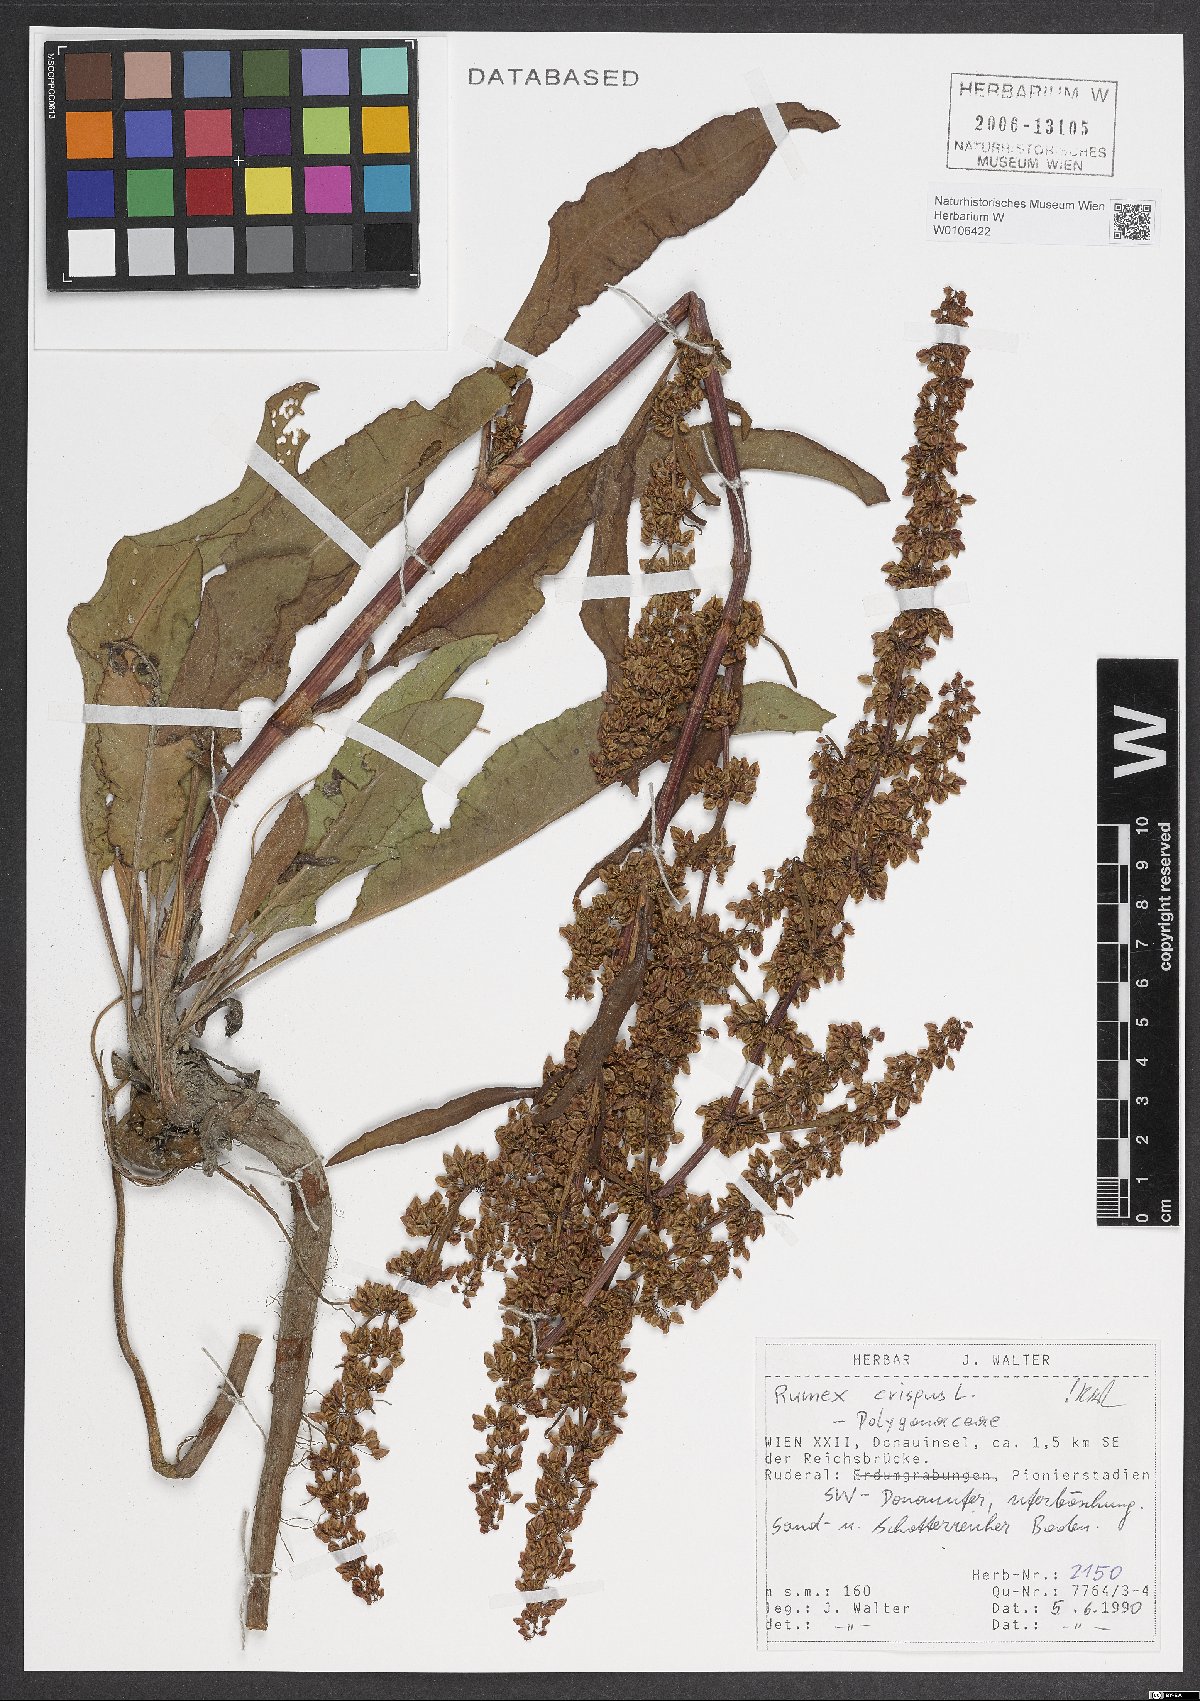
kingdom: Plantae
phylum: Tracheophyta
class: Magnoliopsida
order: Caryophyllales
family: Polygonaceae
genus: Rumex
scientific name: Rumex crispus
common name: Curled dock
